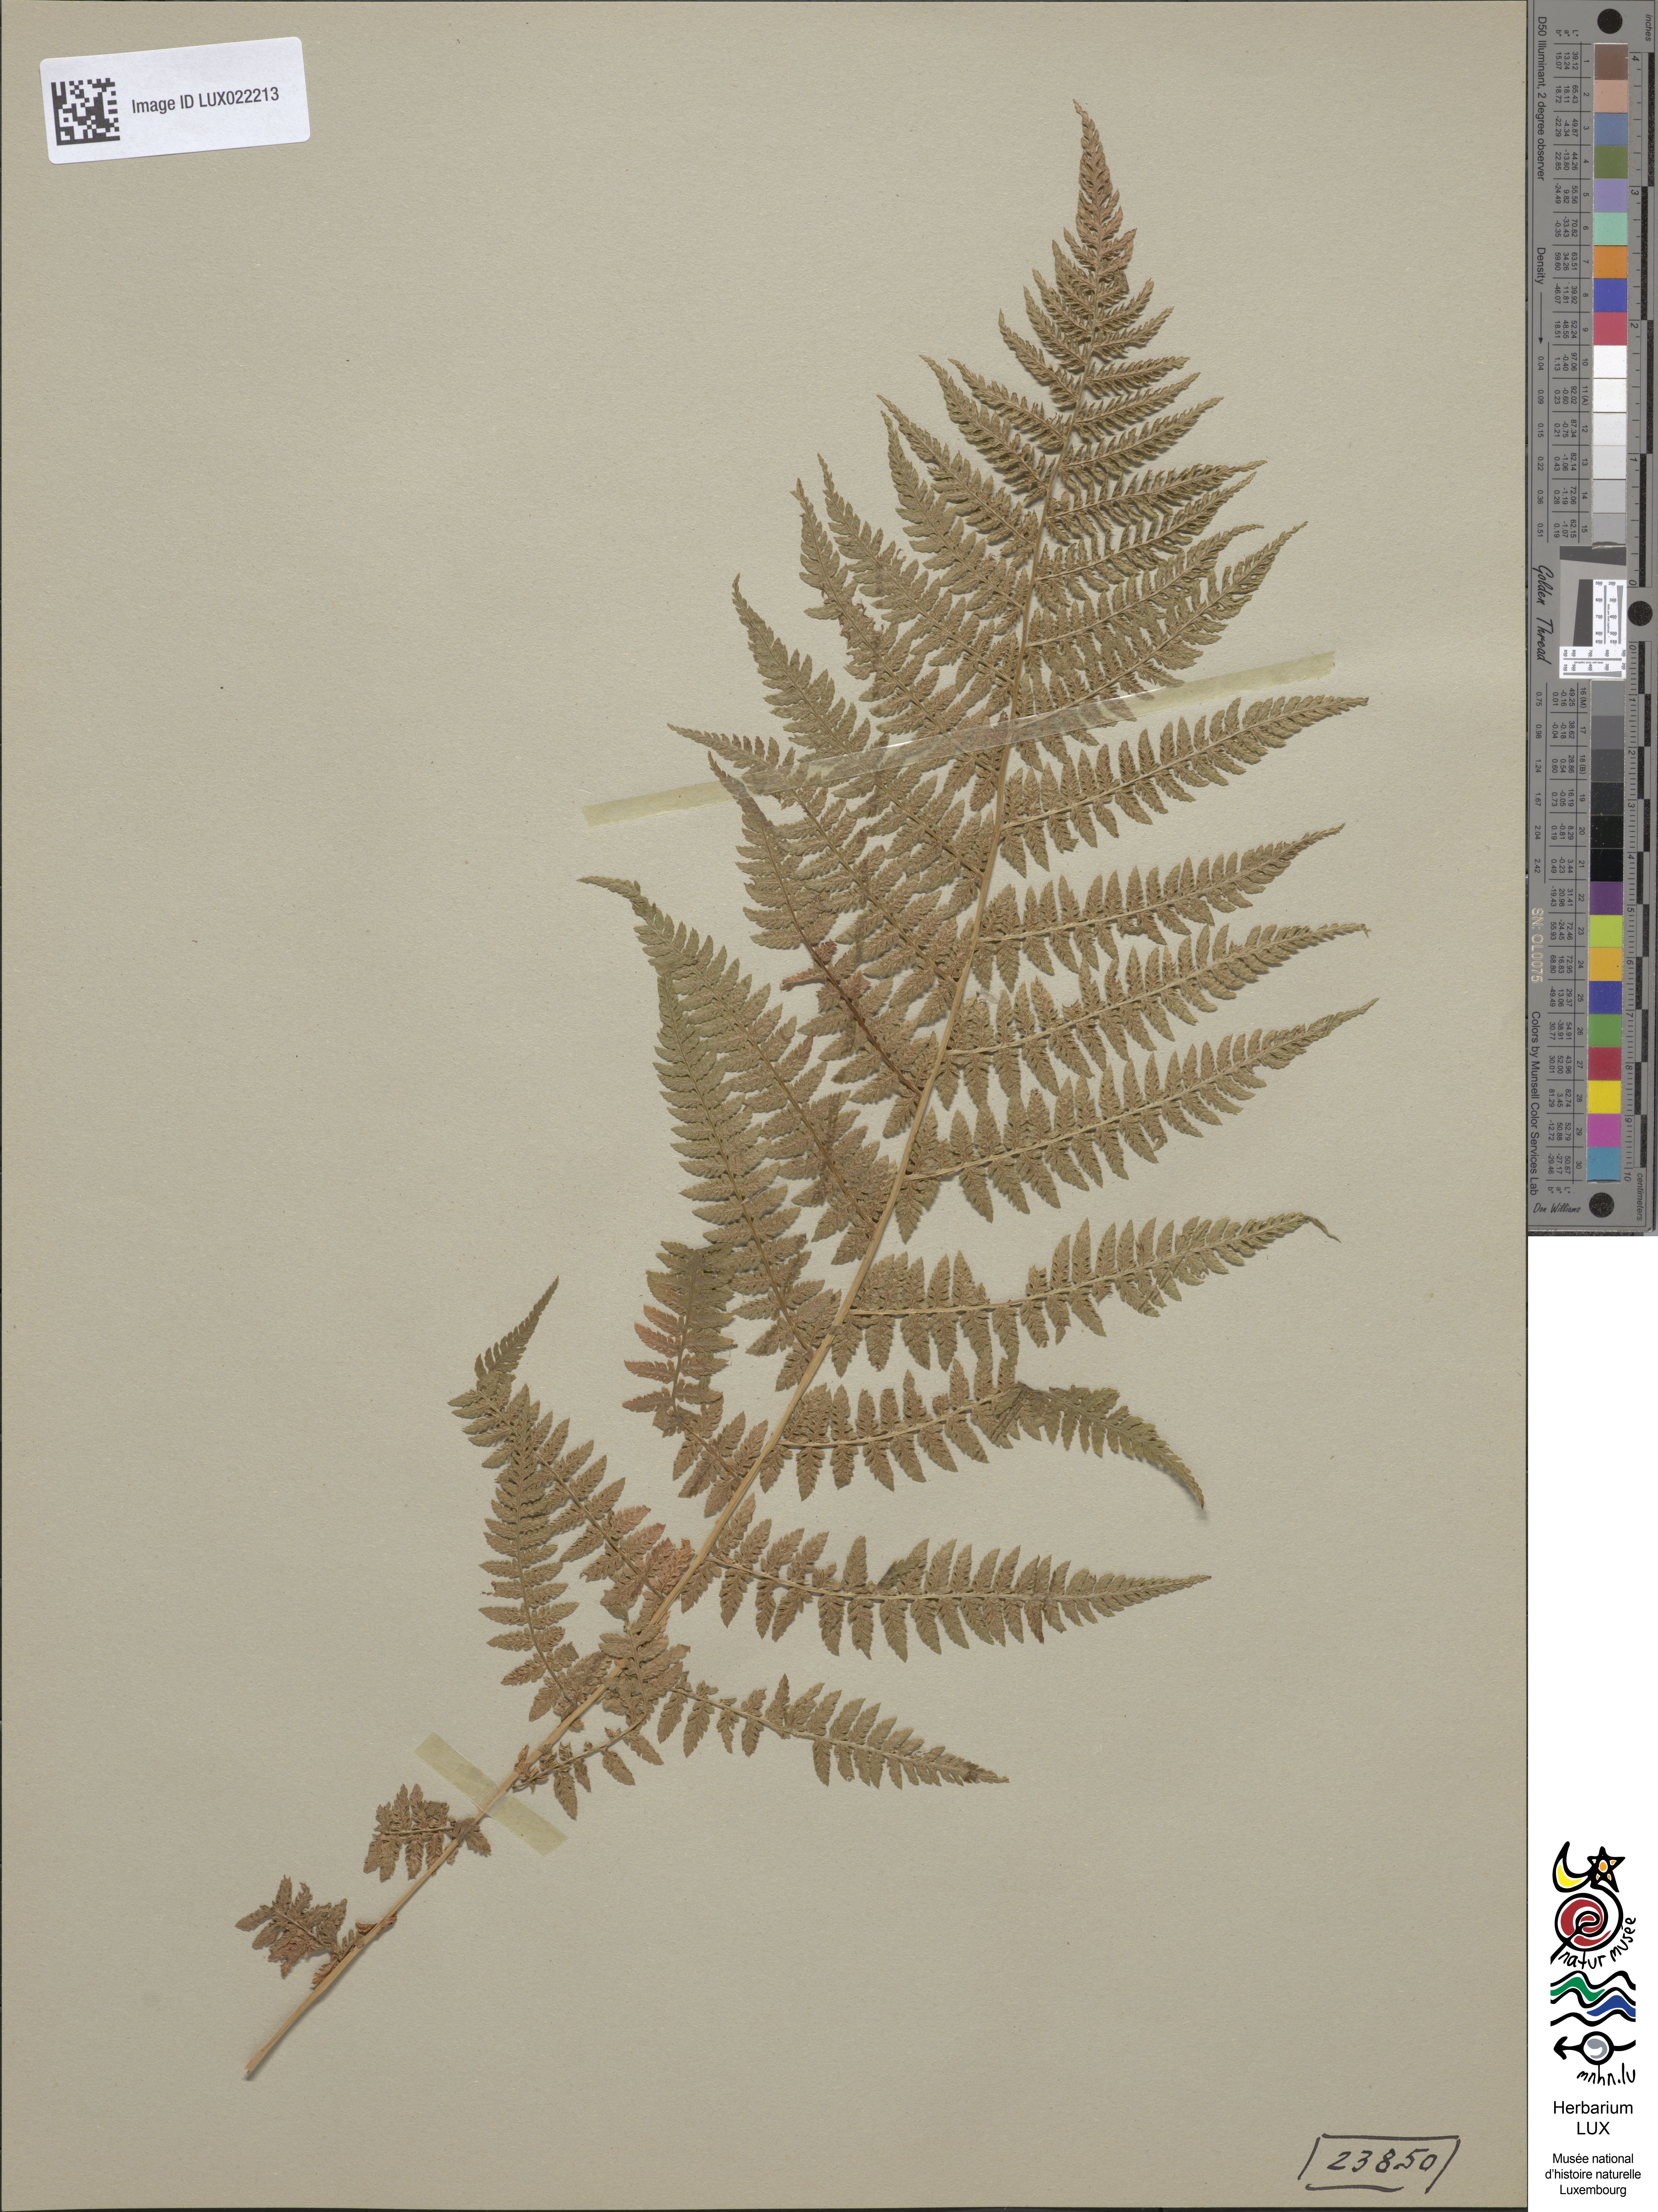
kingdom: Plantae
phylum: Tracheophyta
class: Polypodiopsida
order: Polypodiales
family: Athyriaceae
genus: Athyrium
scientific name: Athyrium filix-femina
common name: Lady fern
